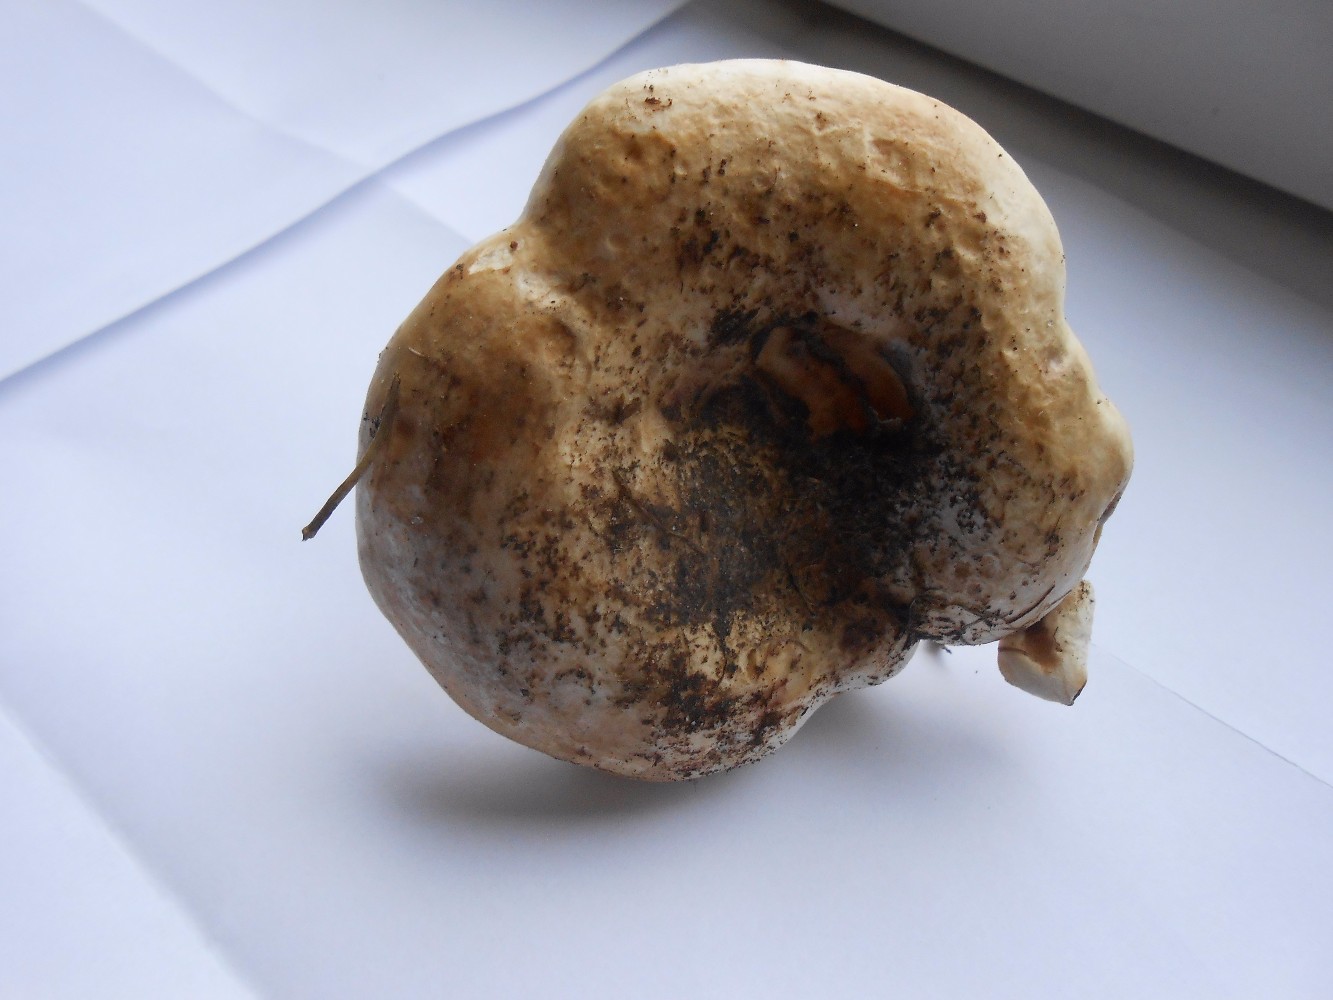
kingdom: Fungi
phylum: Basidiomycota
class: Agaricomycetes
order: Russulales
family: Russulaceae
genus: Lactarius
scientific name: Lactarius controversus
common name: rosabladet mælkehat
